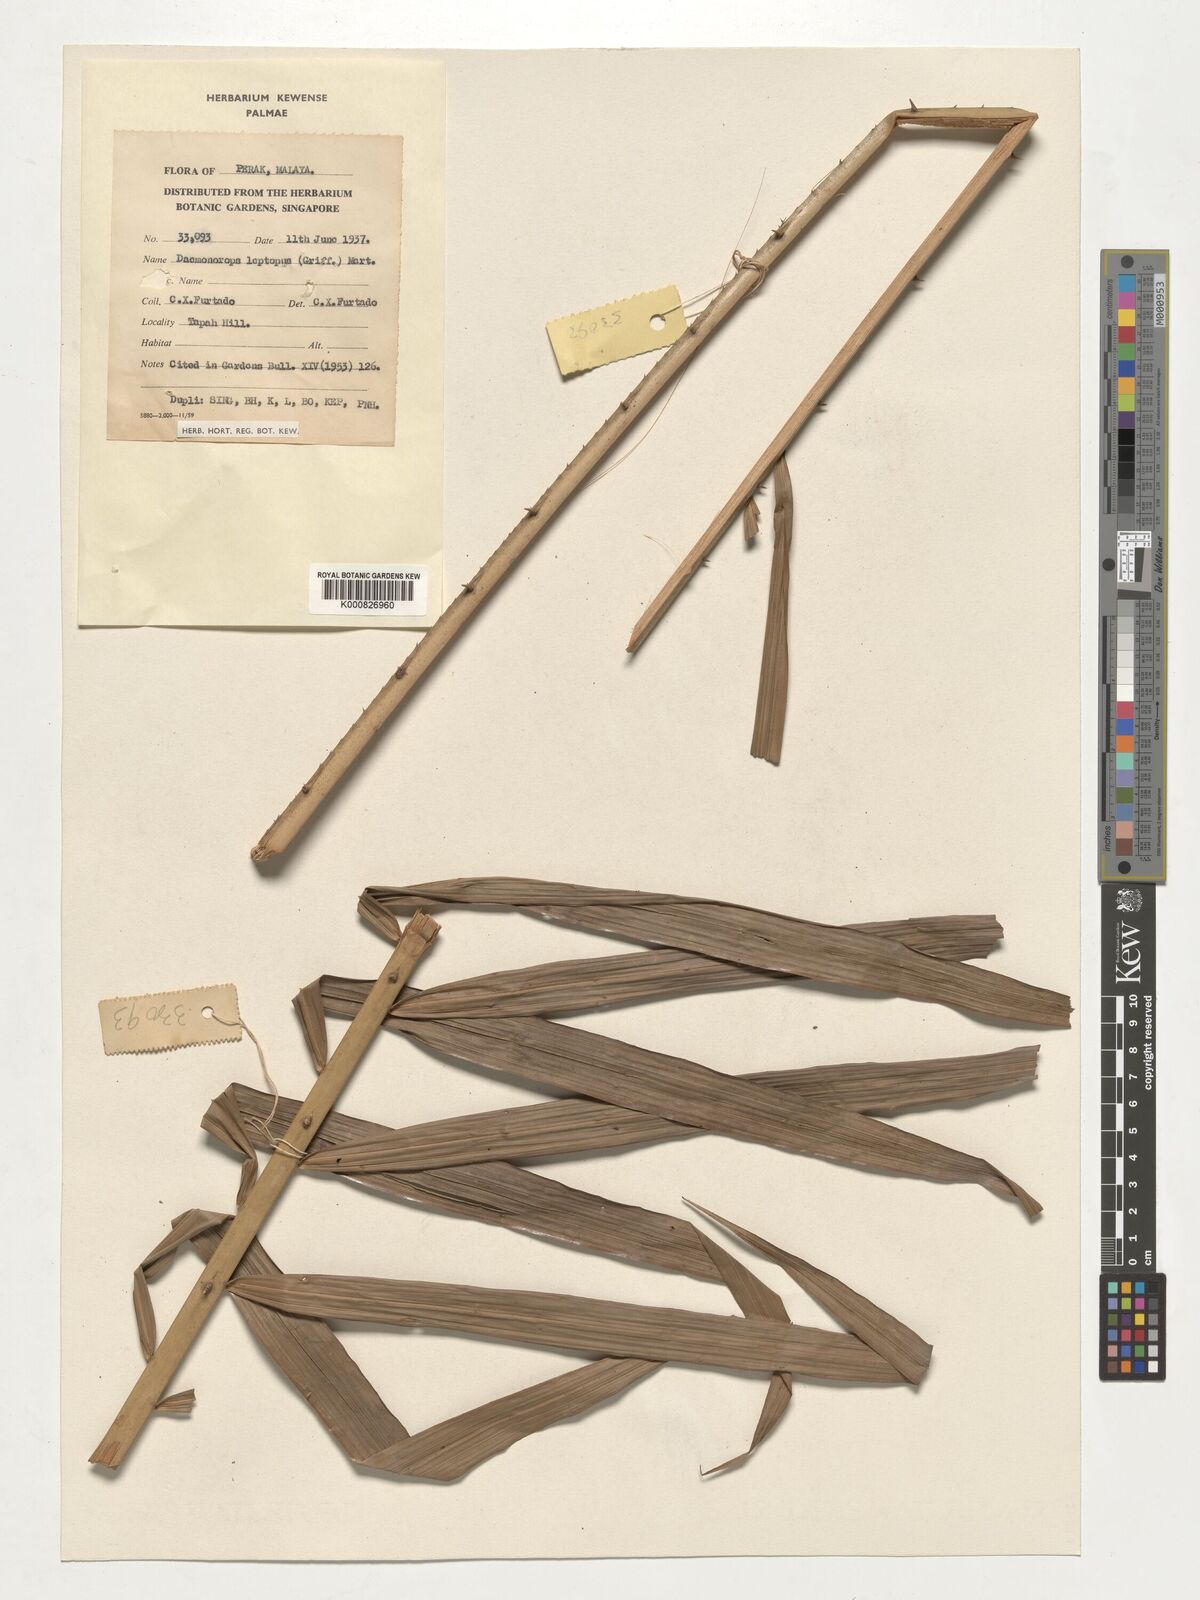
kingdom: Plantae
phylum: Tracheophyta
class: Liliopsida
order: Arecales
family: Arecaceae
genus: Calamus
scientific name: Calamus leptopus
